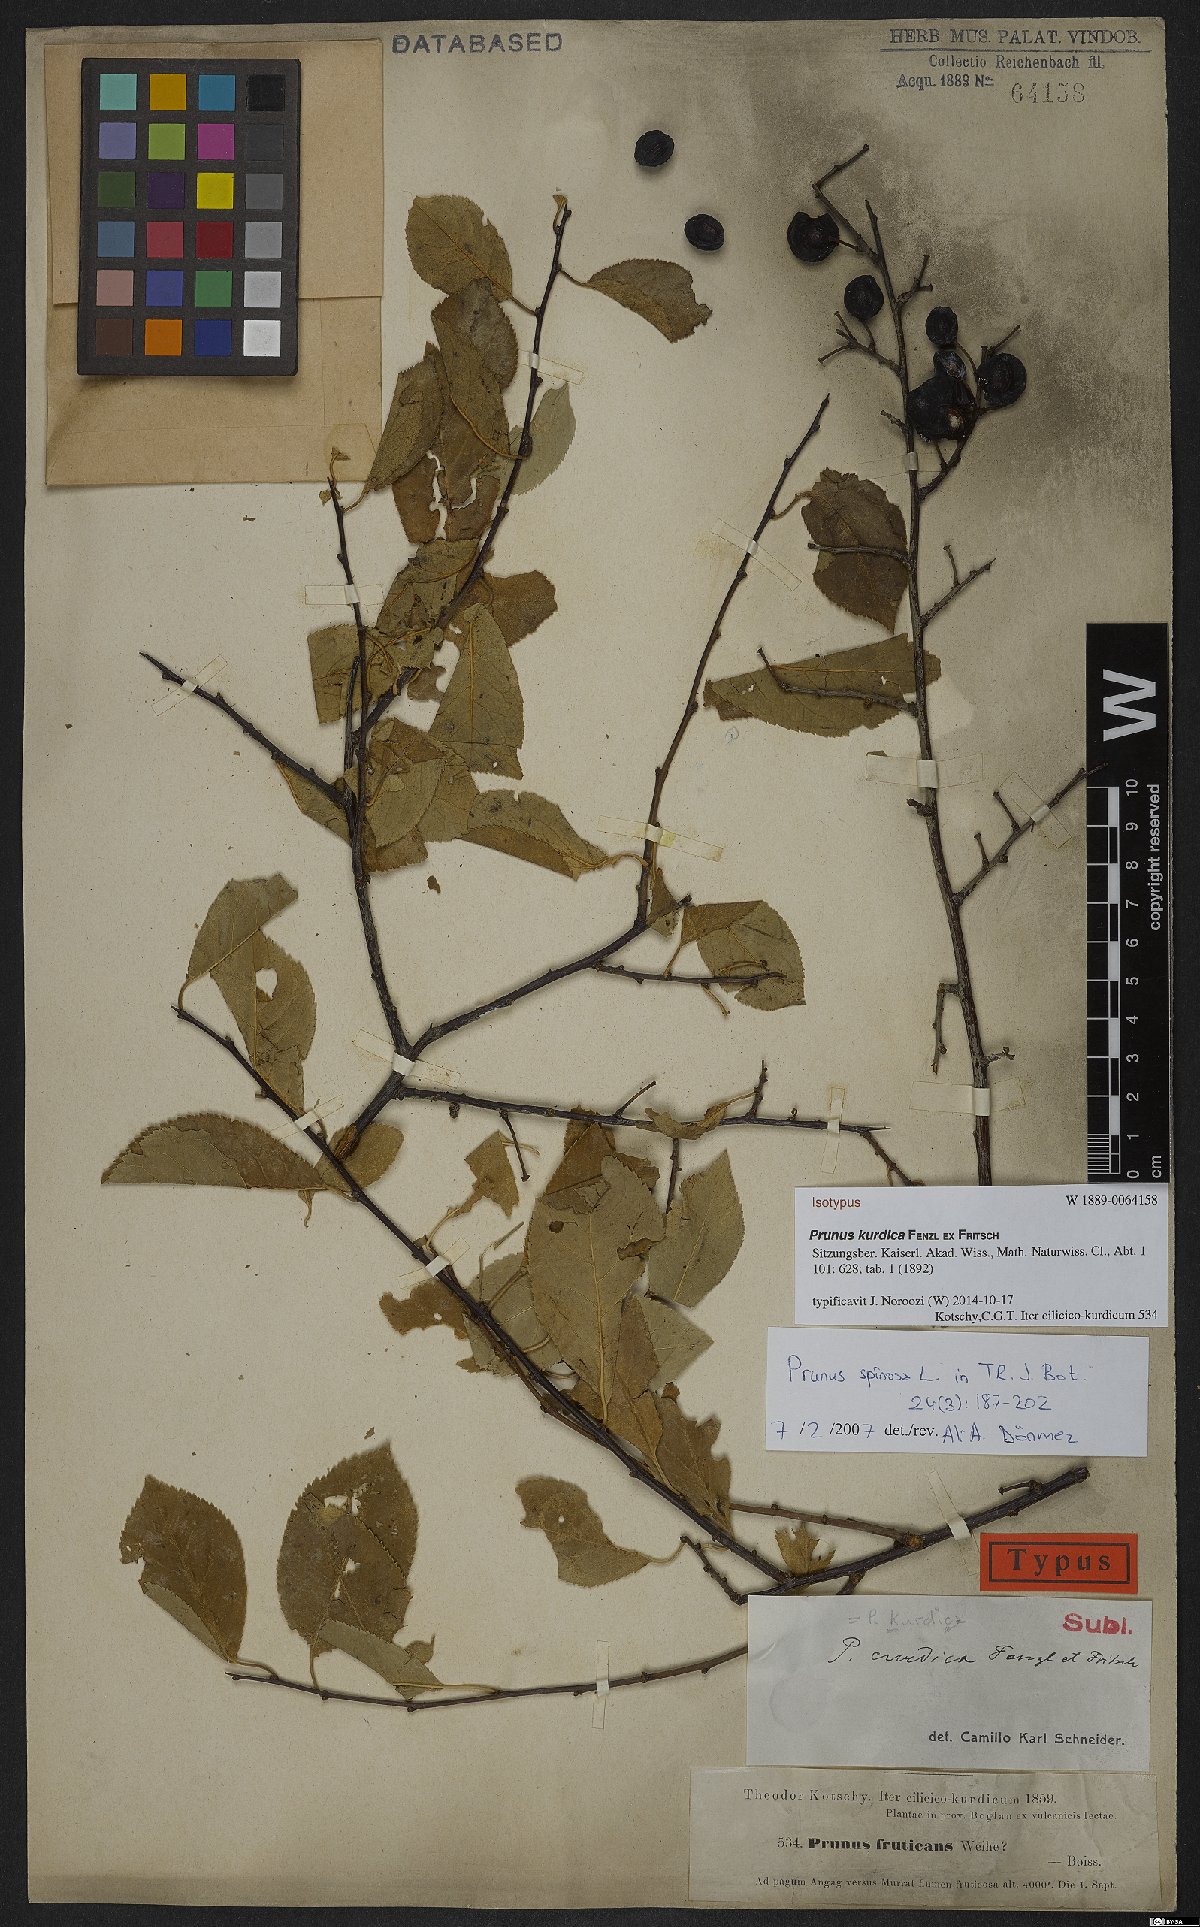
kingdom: Plantae
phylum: Tracheophyta
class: Magnoliopsida
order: Rosales
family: Rosaceae
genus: Prunus
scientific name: Prunus spinosa
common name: Blackthorn
